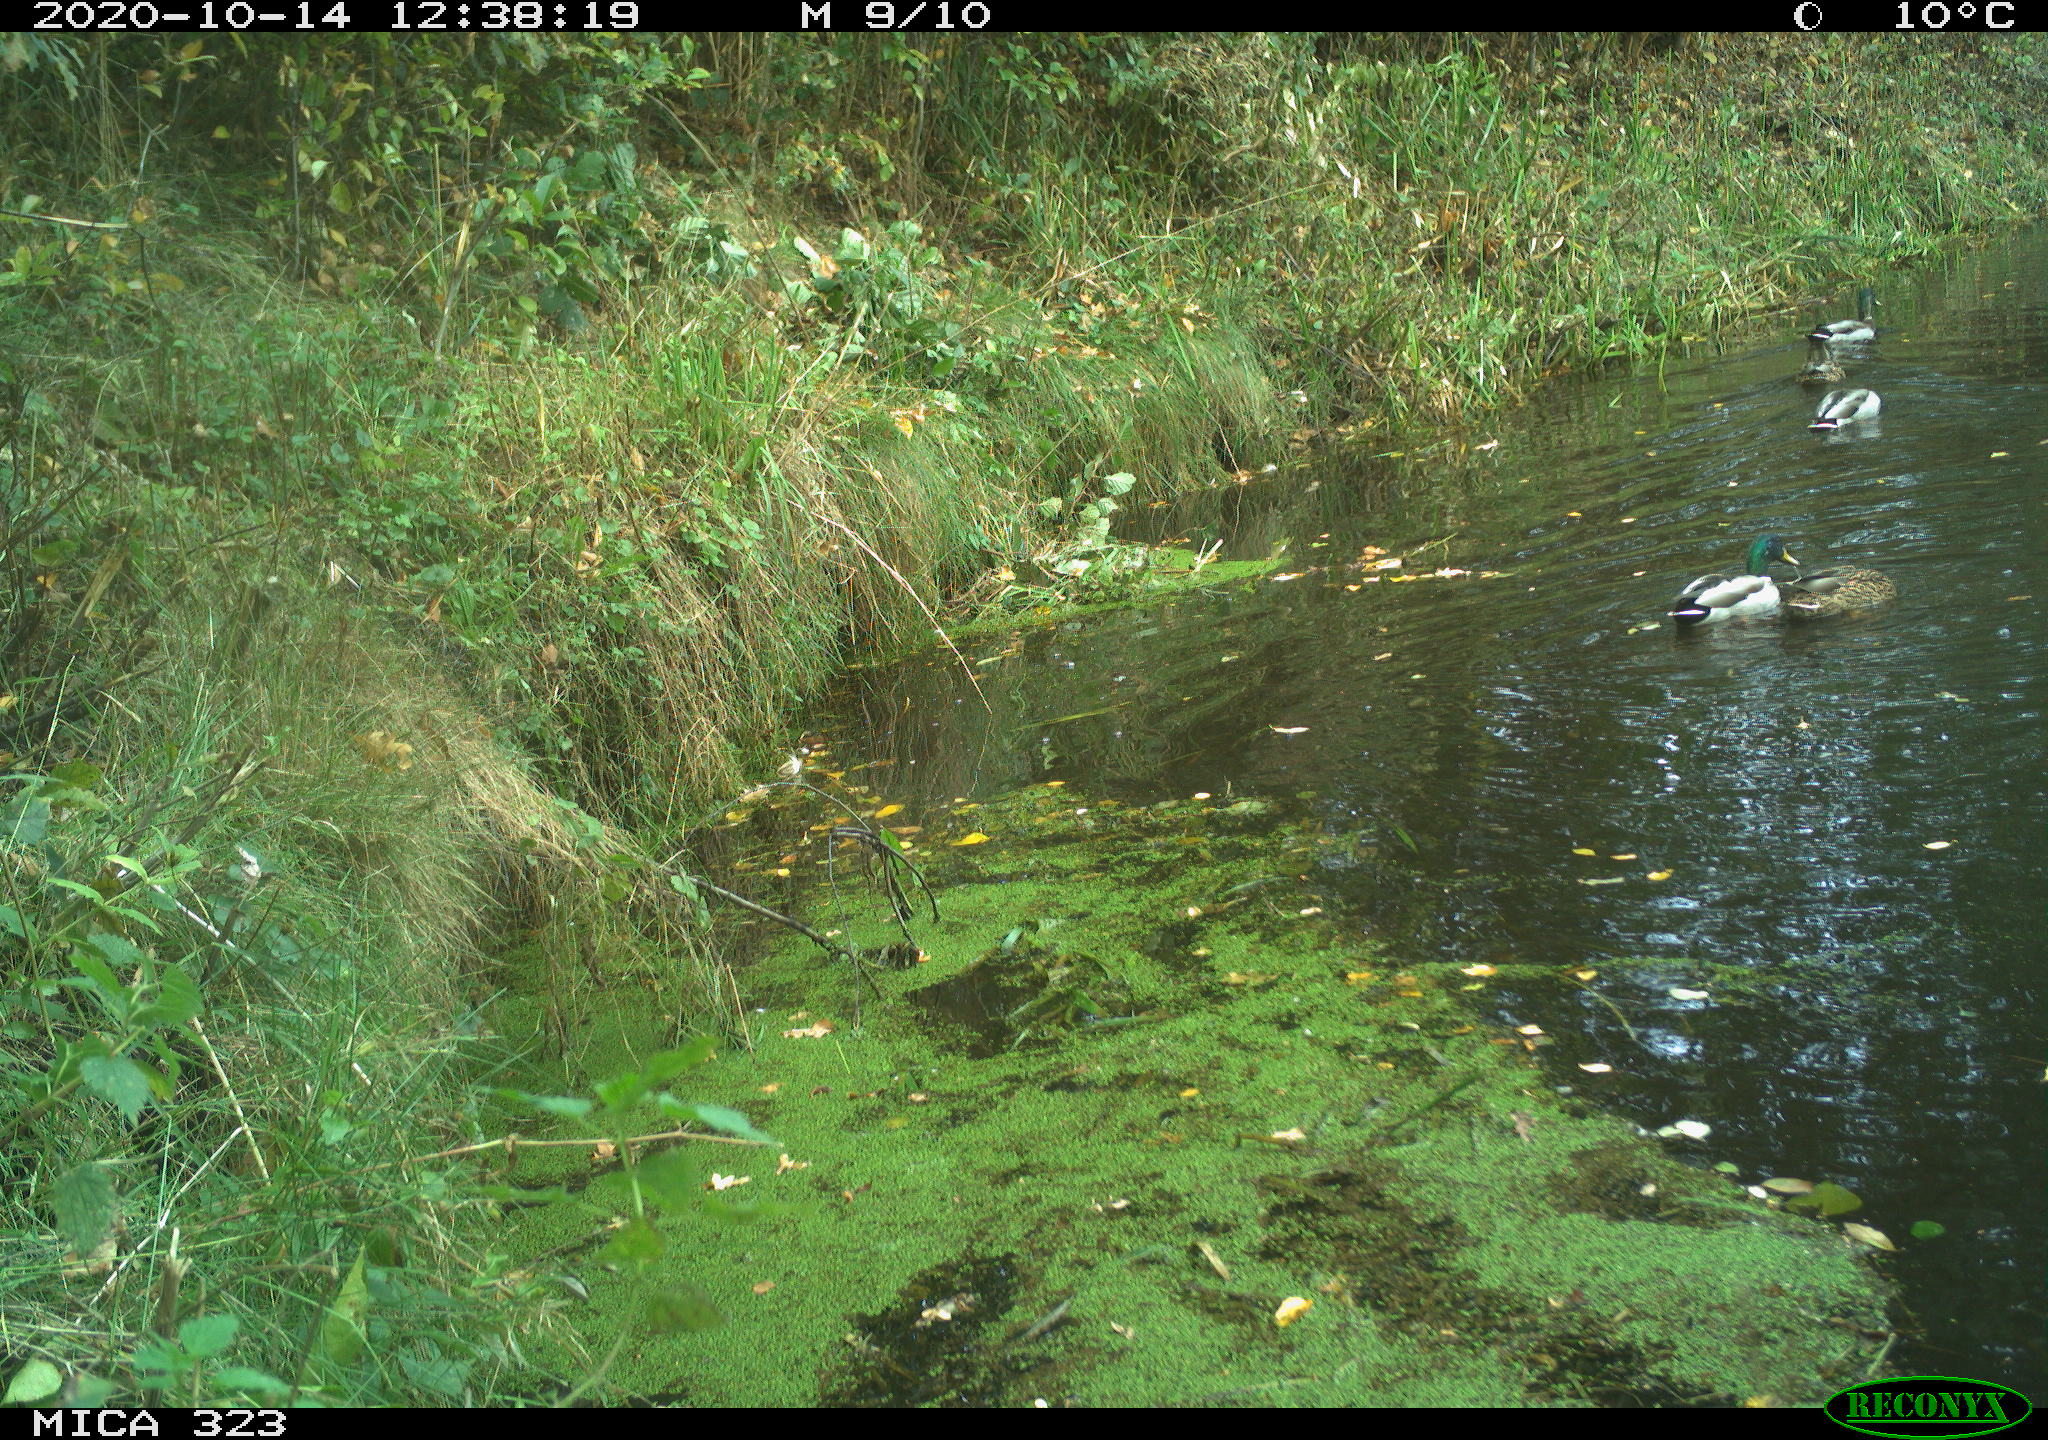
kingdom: Animalia
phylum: Chordata
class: Aves
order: Anseriformes
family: Anatidae
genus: Anas
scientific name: Anas platyrhynchos
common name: Mallard
